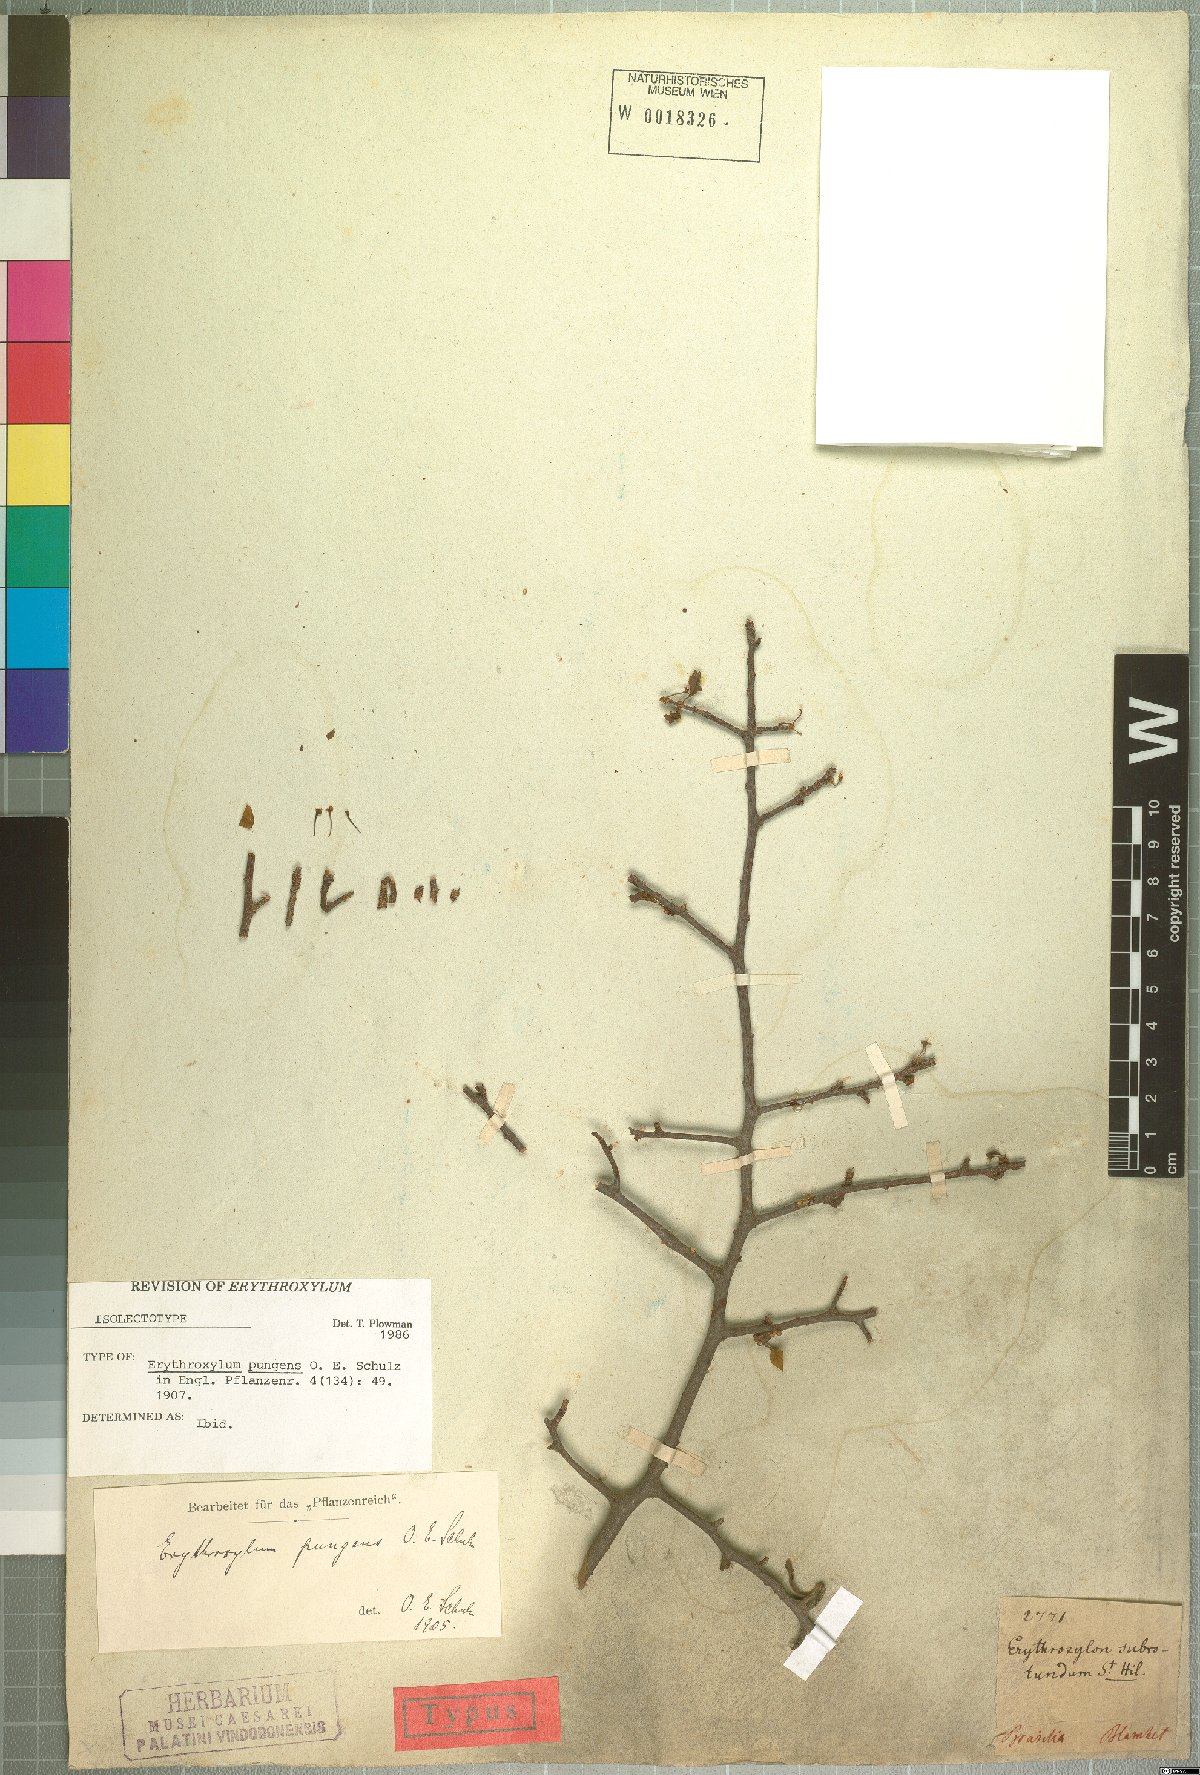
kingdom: Plantae
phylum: Tracheophyta
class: Magnoliopsida
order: Malpighiales
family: Erythroxylaceae
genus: Erythroxylum
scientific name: Erythroxylum pungens
